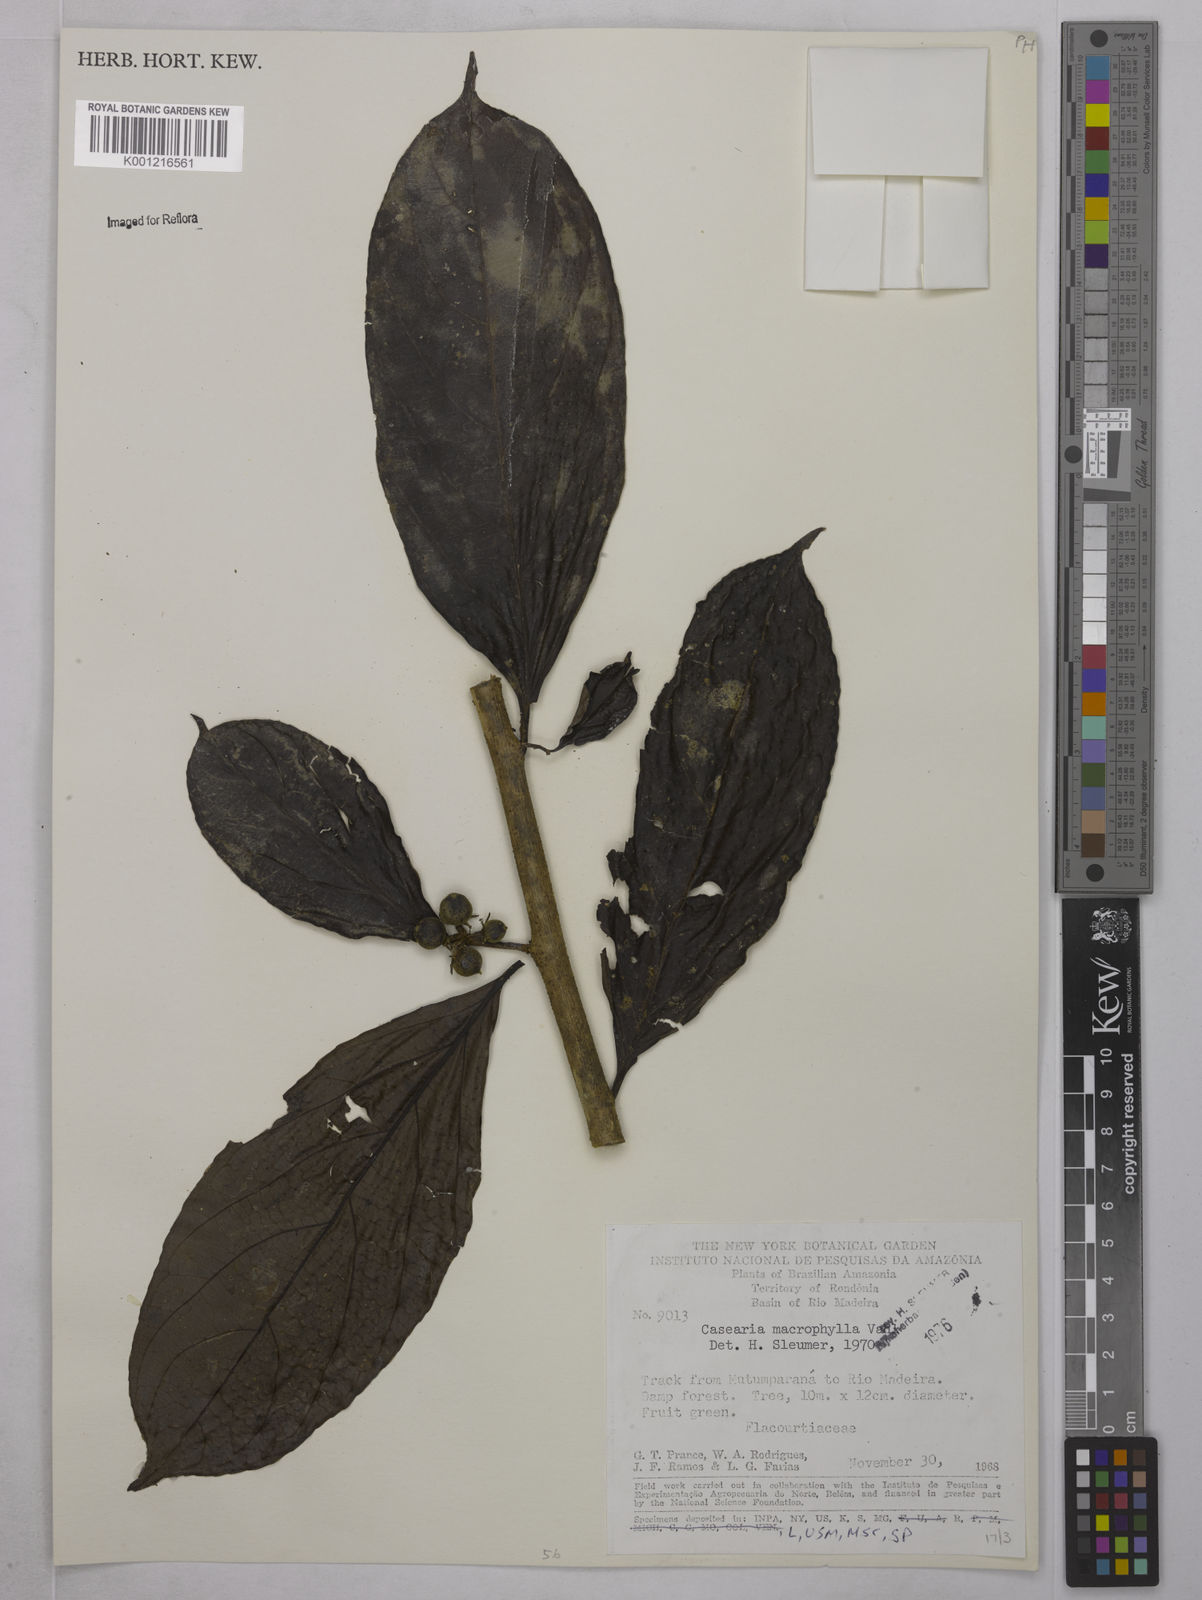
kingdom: Plantae
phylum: Tracheophyta
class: Magnoliopsida
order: Malpighiales
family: Salicaceae
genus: Casearia
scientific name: Casearia pitumba
